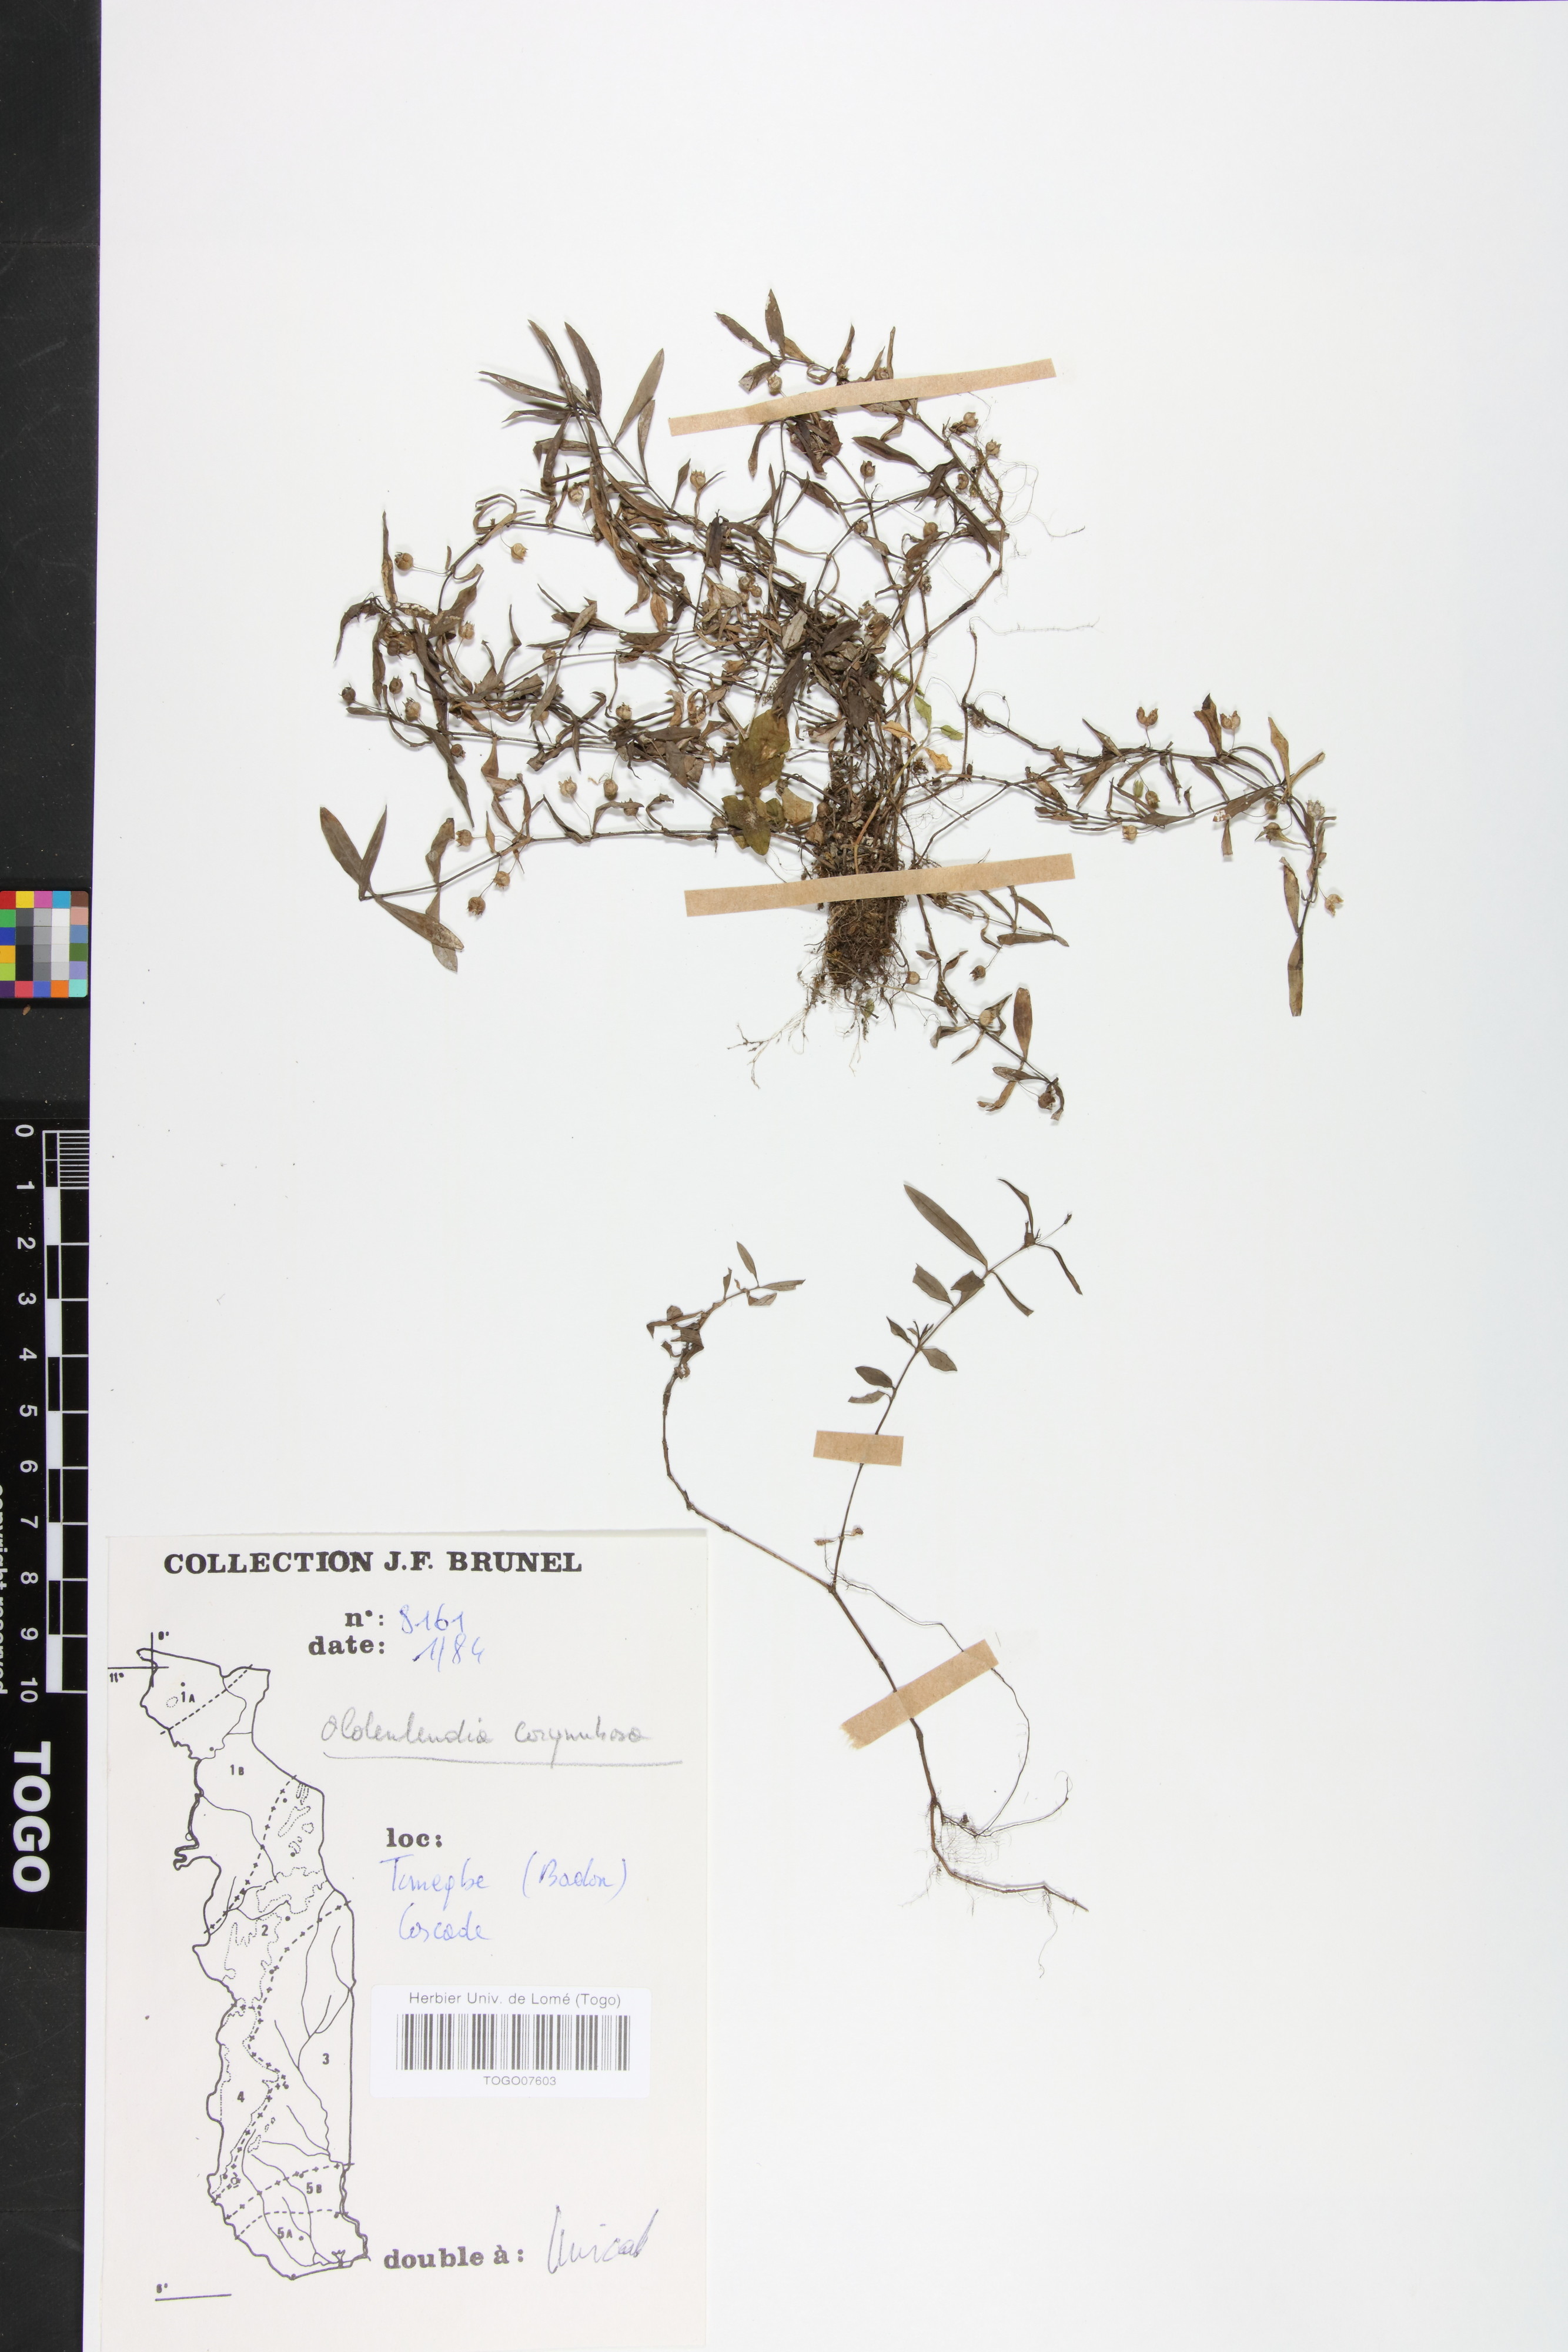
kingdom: Plantae
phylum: Tracheophyta
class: Magnoliopsida
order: Gentianales
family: Rubiaceae
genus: Oldenlandia
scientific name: Oldenlandia corymbosa
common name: Flat-top mille graines
